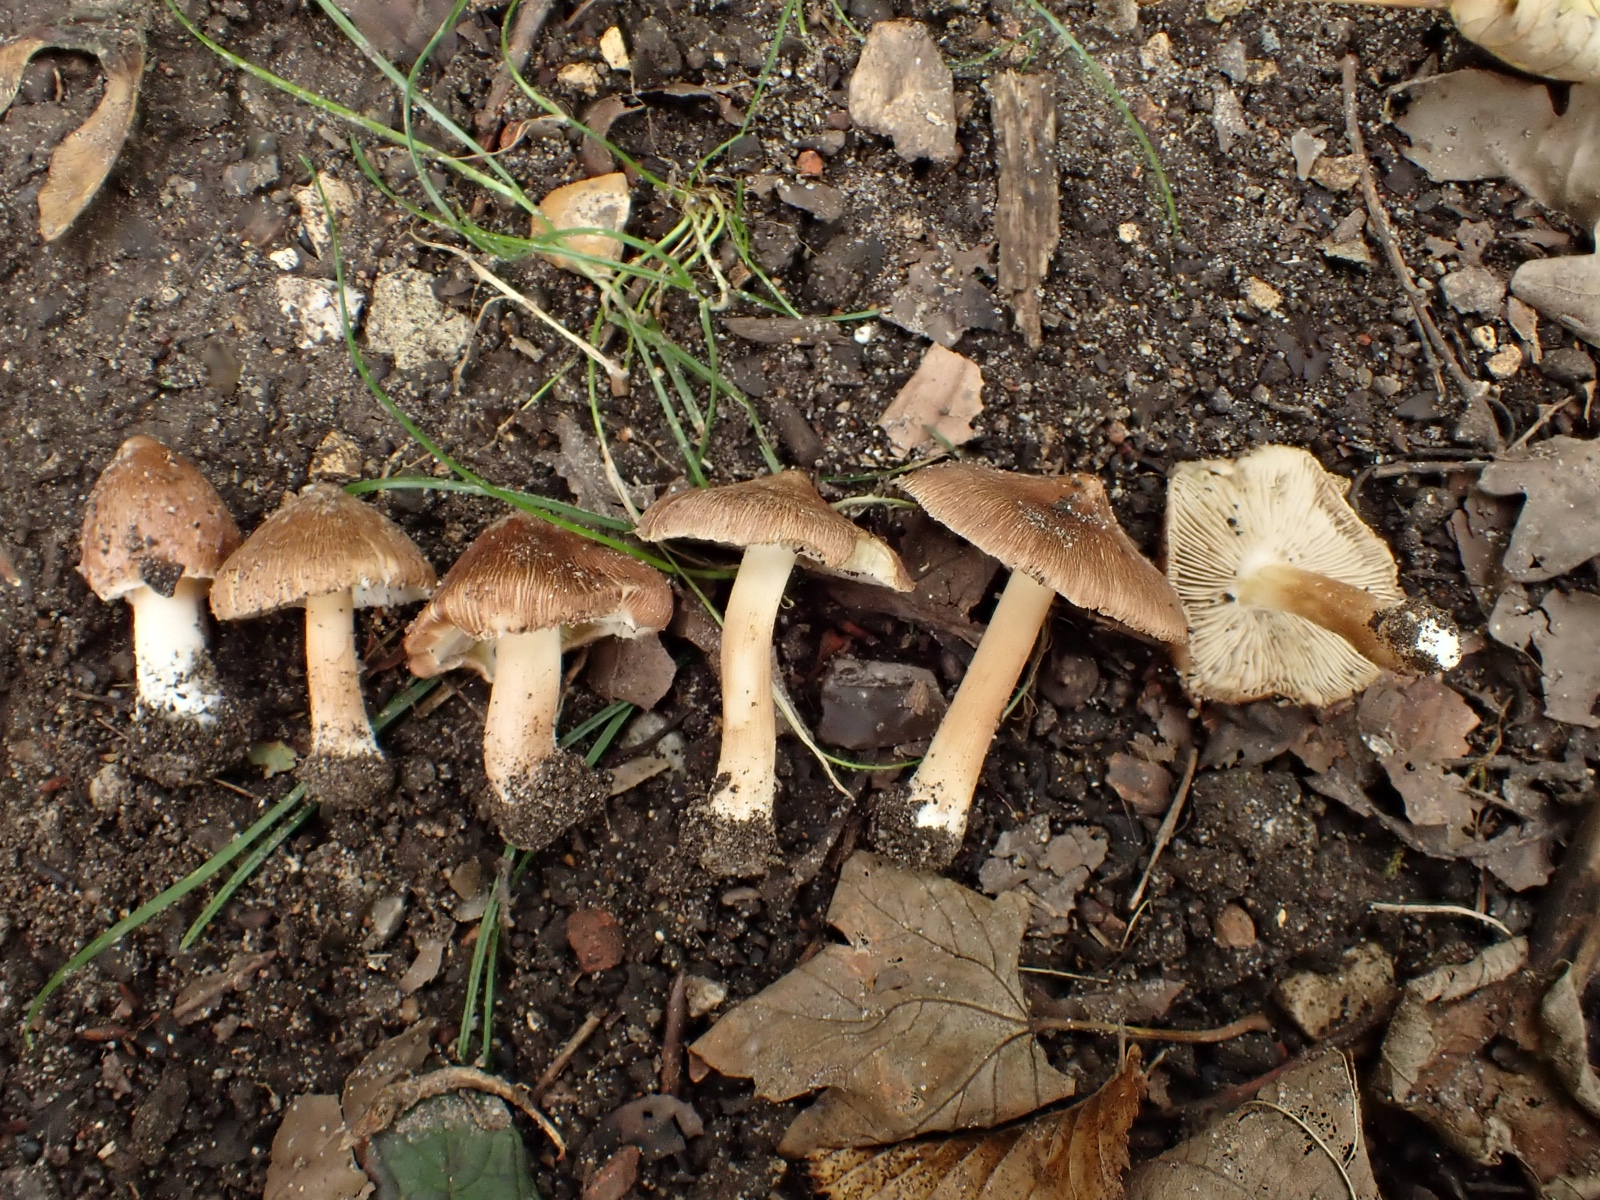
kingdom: Fungi
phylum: Basidiomycota
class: Agaricomycetes
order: Agaricales
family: Inocybaceae
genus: Inosperma
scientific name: Inosperma
